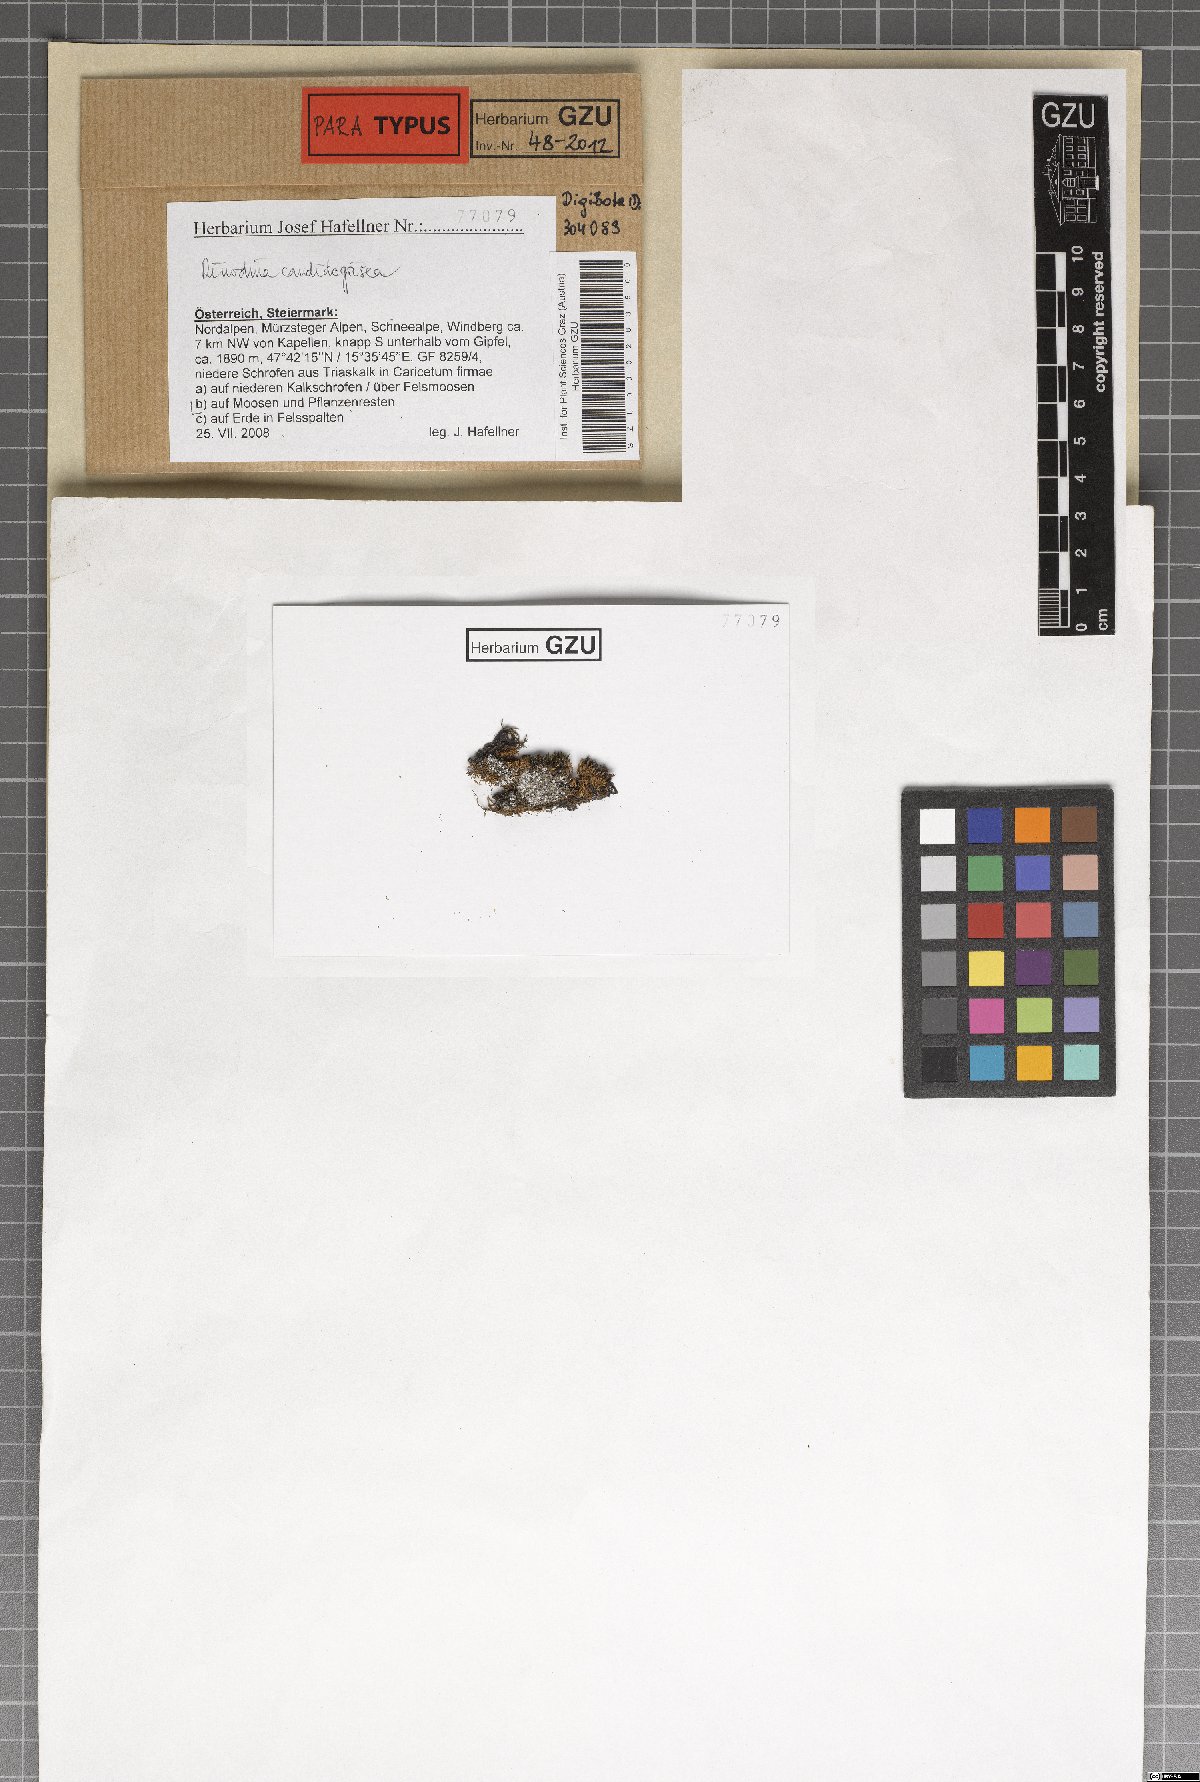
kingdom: Fungi
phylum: Ascomycota
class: Lecanoromycetes
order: Caliciales
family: Physciaceae
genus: Kudratovia
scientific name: Kudratovia candidogrisea
